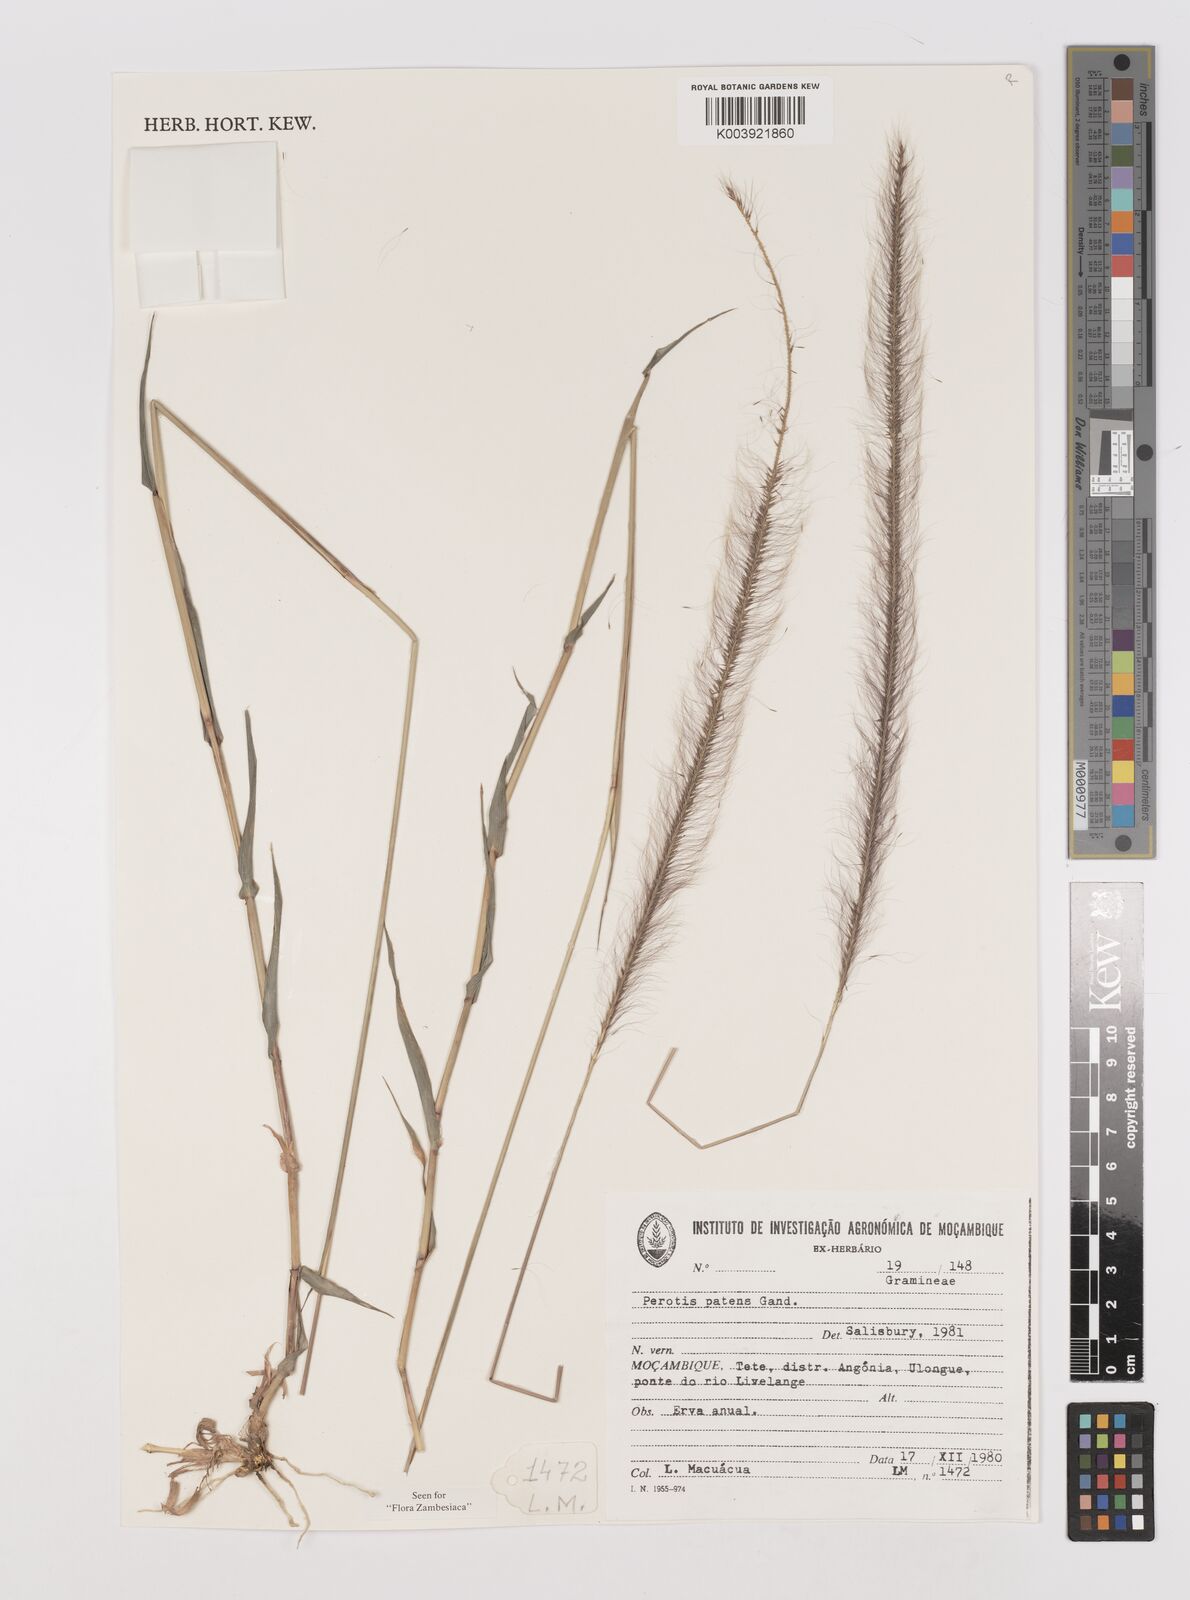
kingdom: Plantae
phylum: Tracheophyta
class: Liliopsida
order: Poales
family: Poaceae
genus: Perotis
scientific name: Perotis patens
